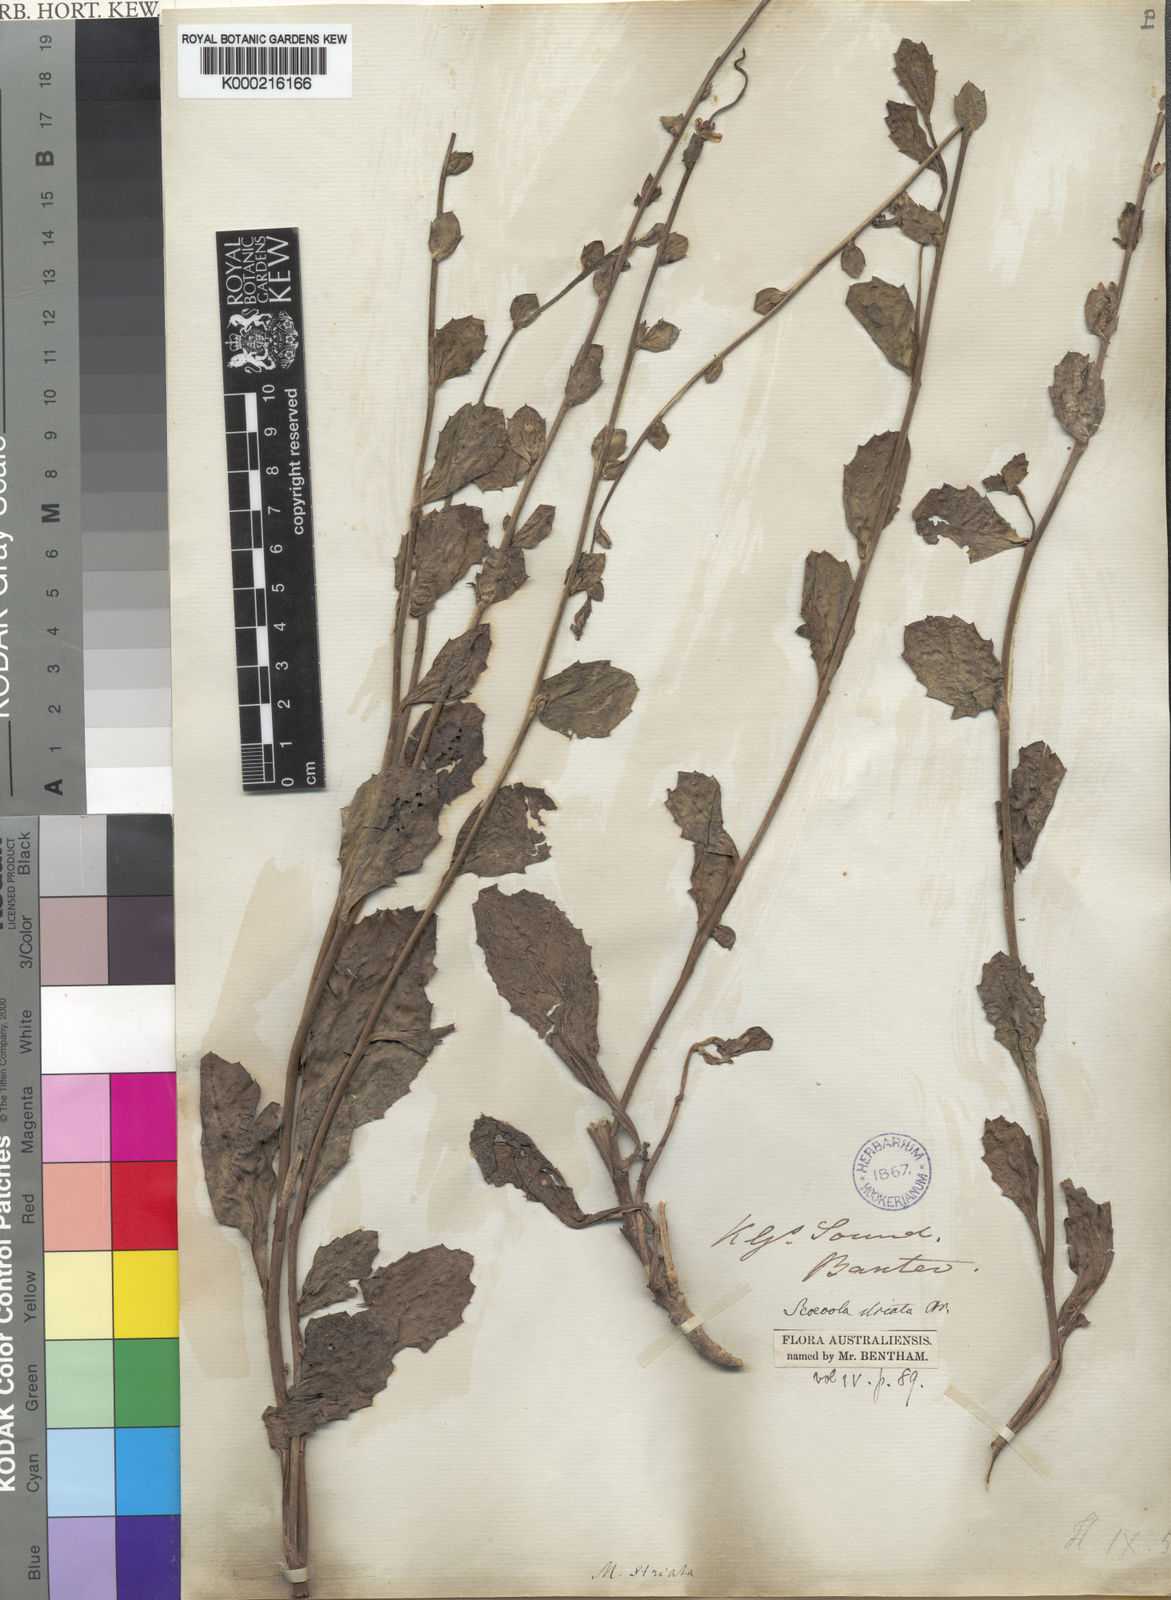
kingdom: Plantae
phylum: Tracheophyta
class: Magnoliopsida
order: Asterales
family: Goodeniaceae
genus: Scaevola
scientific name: Scaevola striata
